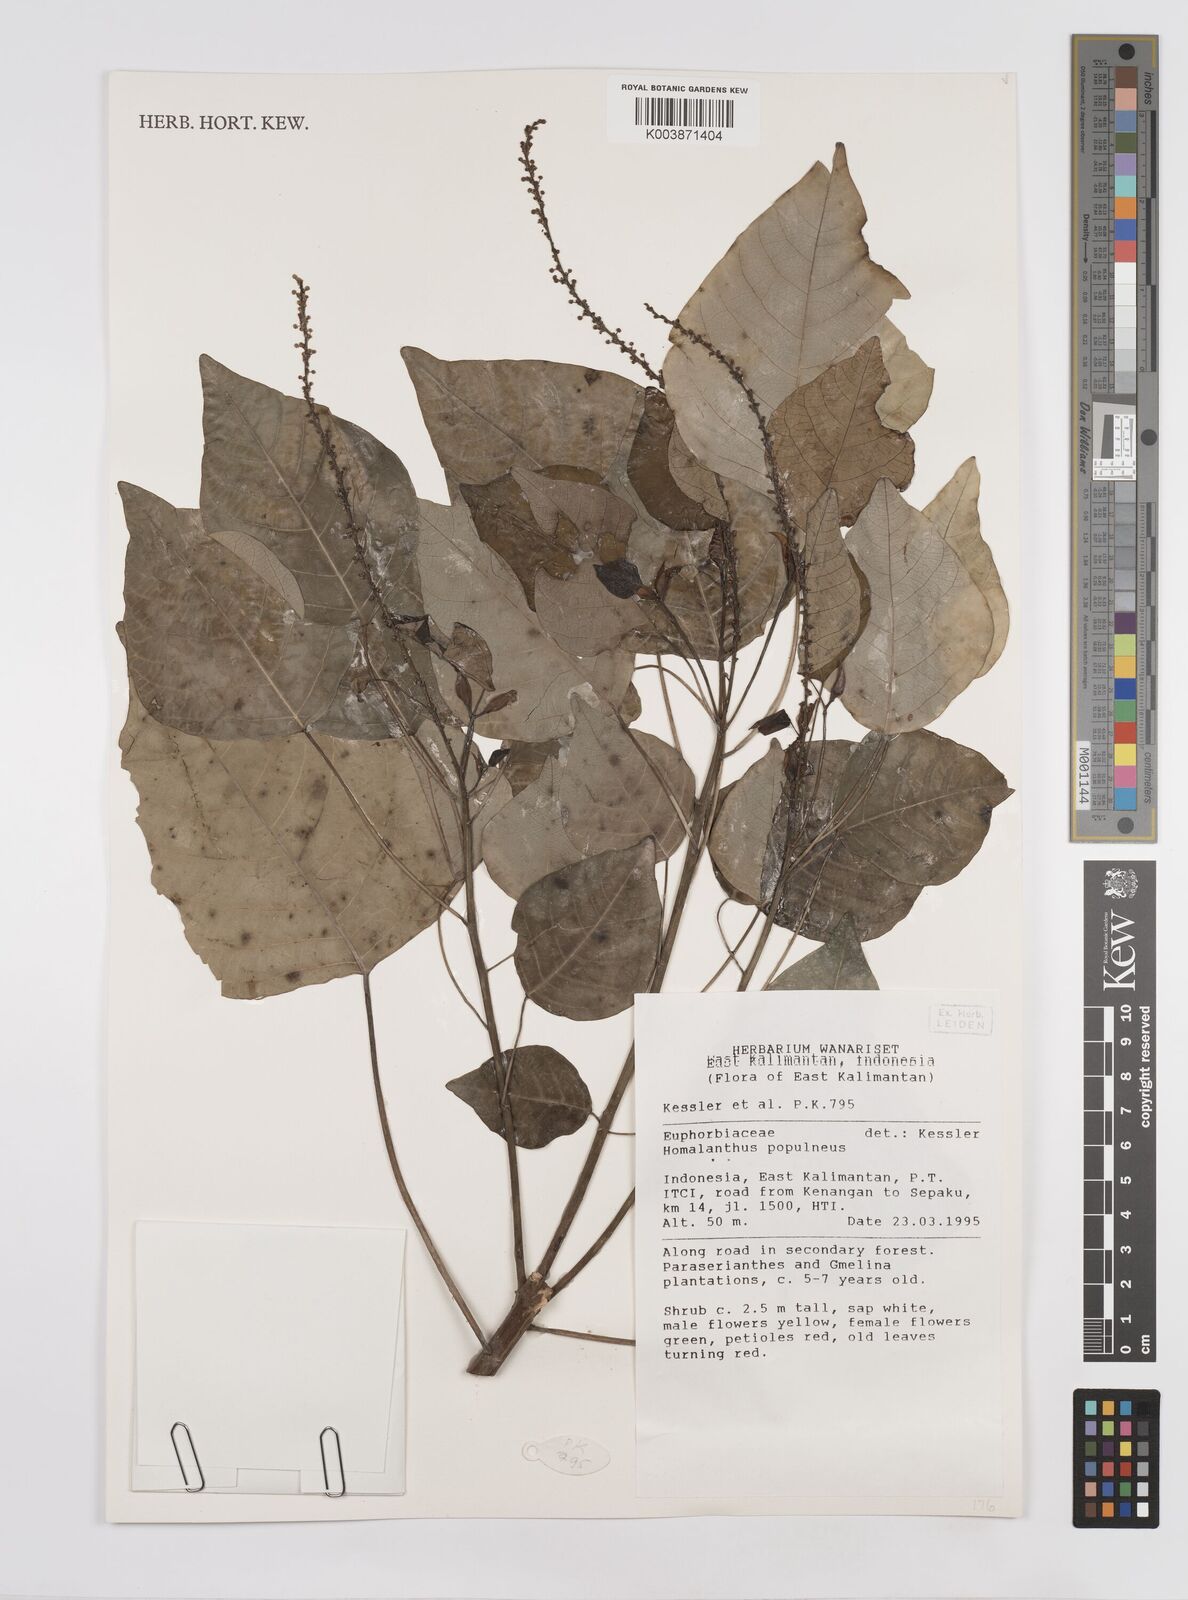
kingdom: Plantae
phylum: Tracheophyta
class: Magnoliopsida
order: Malpighiales
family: Euphorbiaceae
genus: Homalanthus
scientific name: Homalanthus populneus
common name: Spurge
